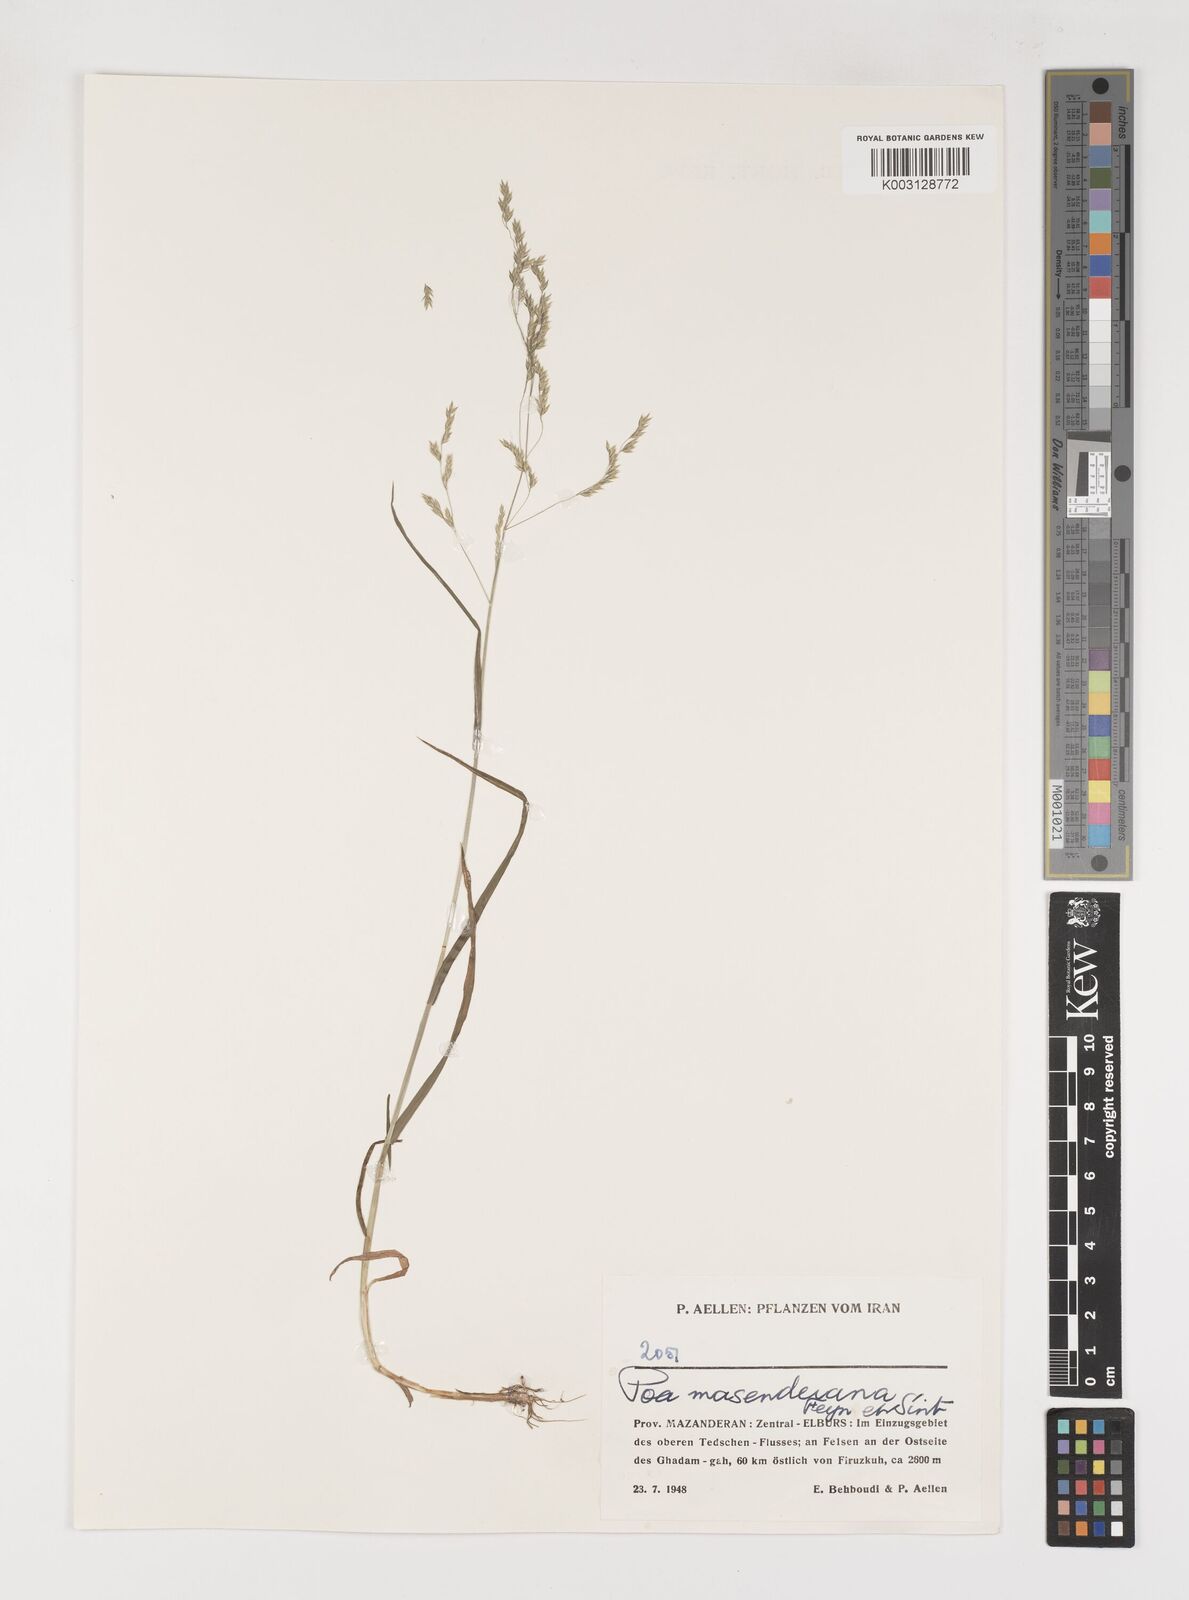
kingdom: Plantae
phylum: Tracheophyta
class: Liliopsida
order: Poales
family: Poaceae
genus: Poa
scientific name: Poa masenderana
